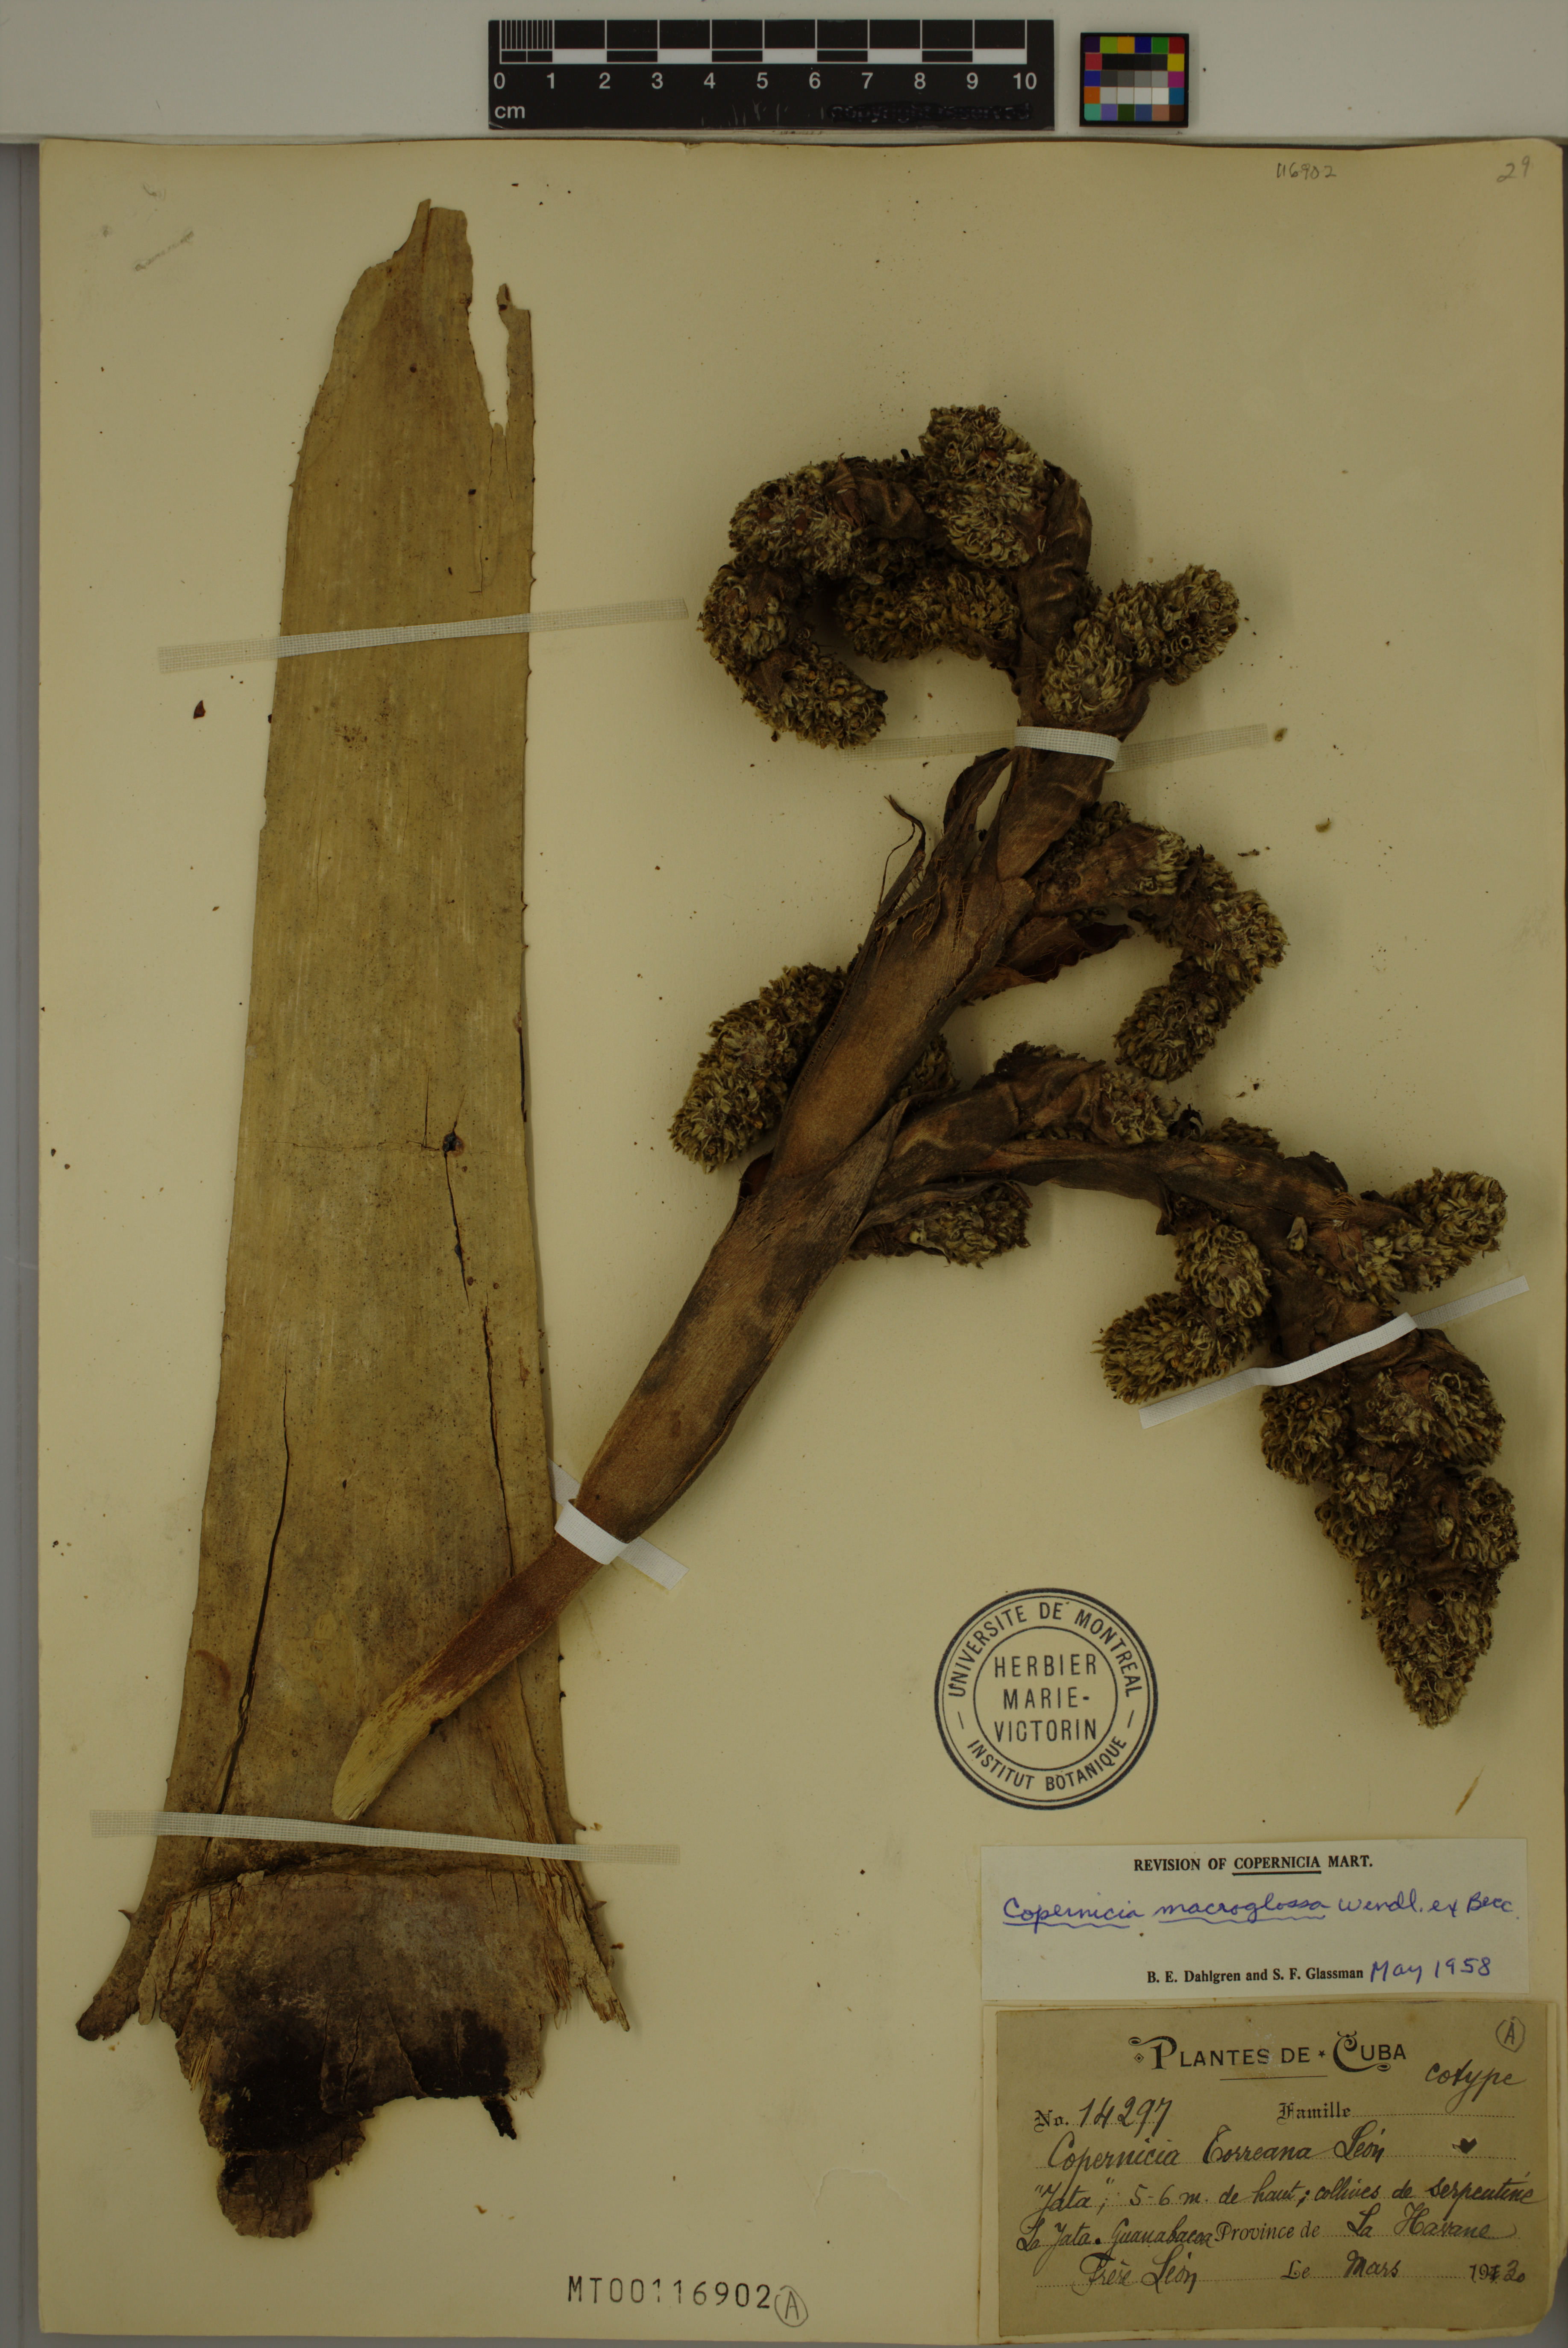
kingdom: Plantae
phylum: Tracheophyta
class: Liliopsida
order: Arecales
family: Arecaceae
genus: Copernicia
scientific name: Copernicia macroglossa
